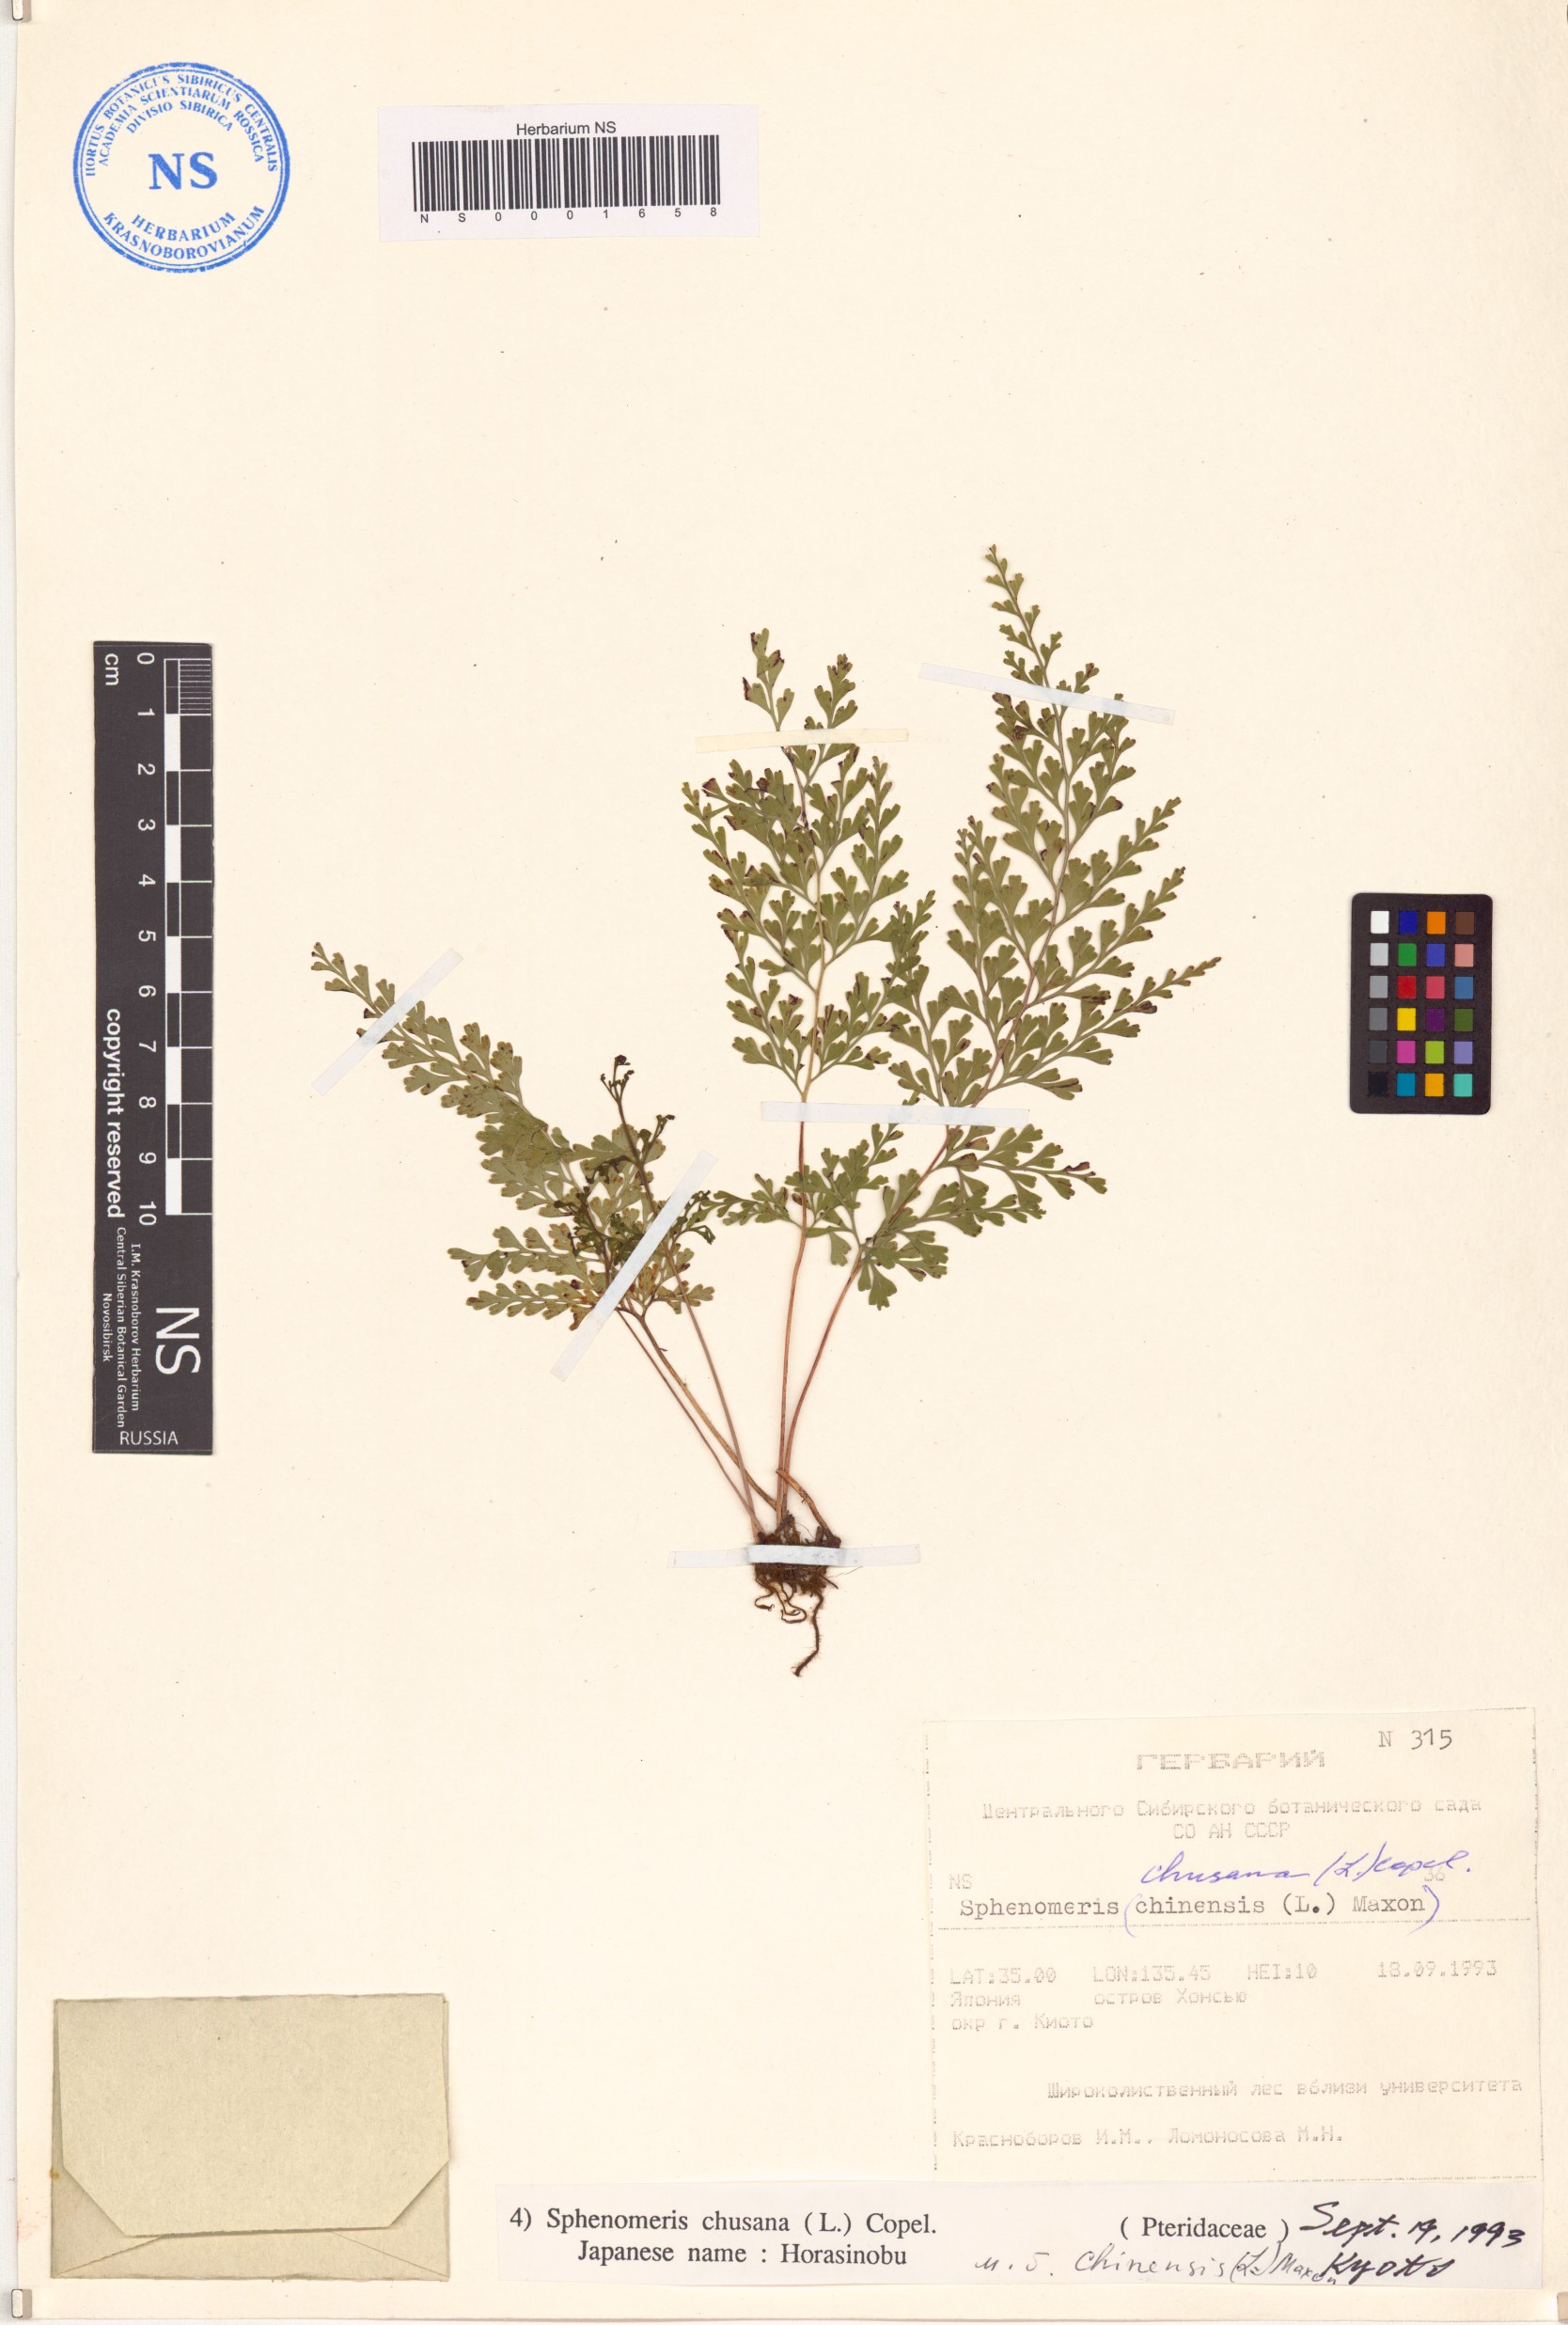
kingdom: Plantae
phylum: Tracheophyta
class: Polypodiopsida
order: Polypodiales
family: Lindsaeaceae
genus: Odontosoria
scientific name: Odontosoria chinensis
